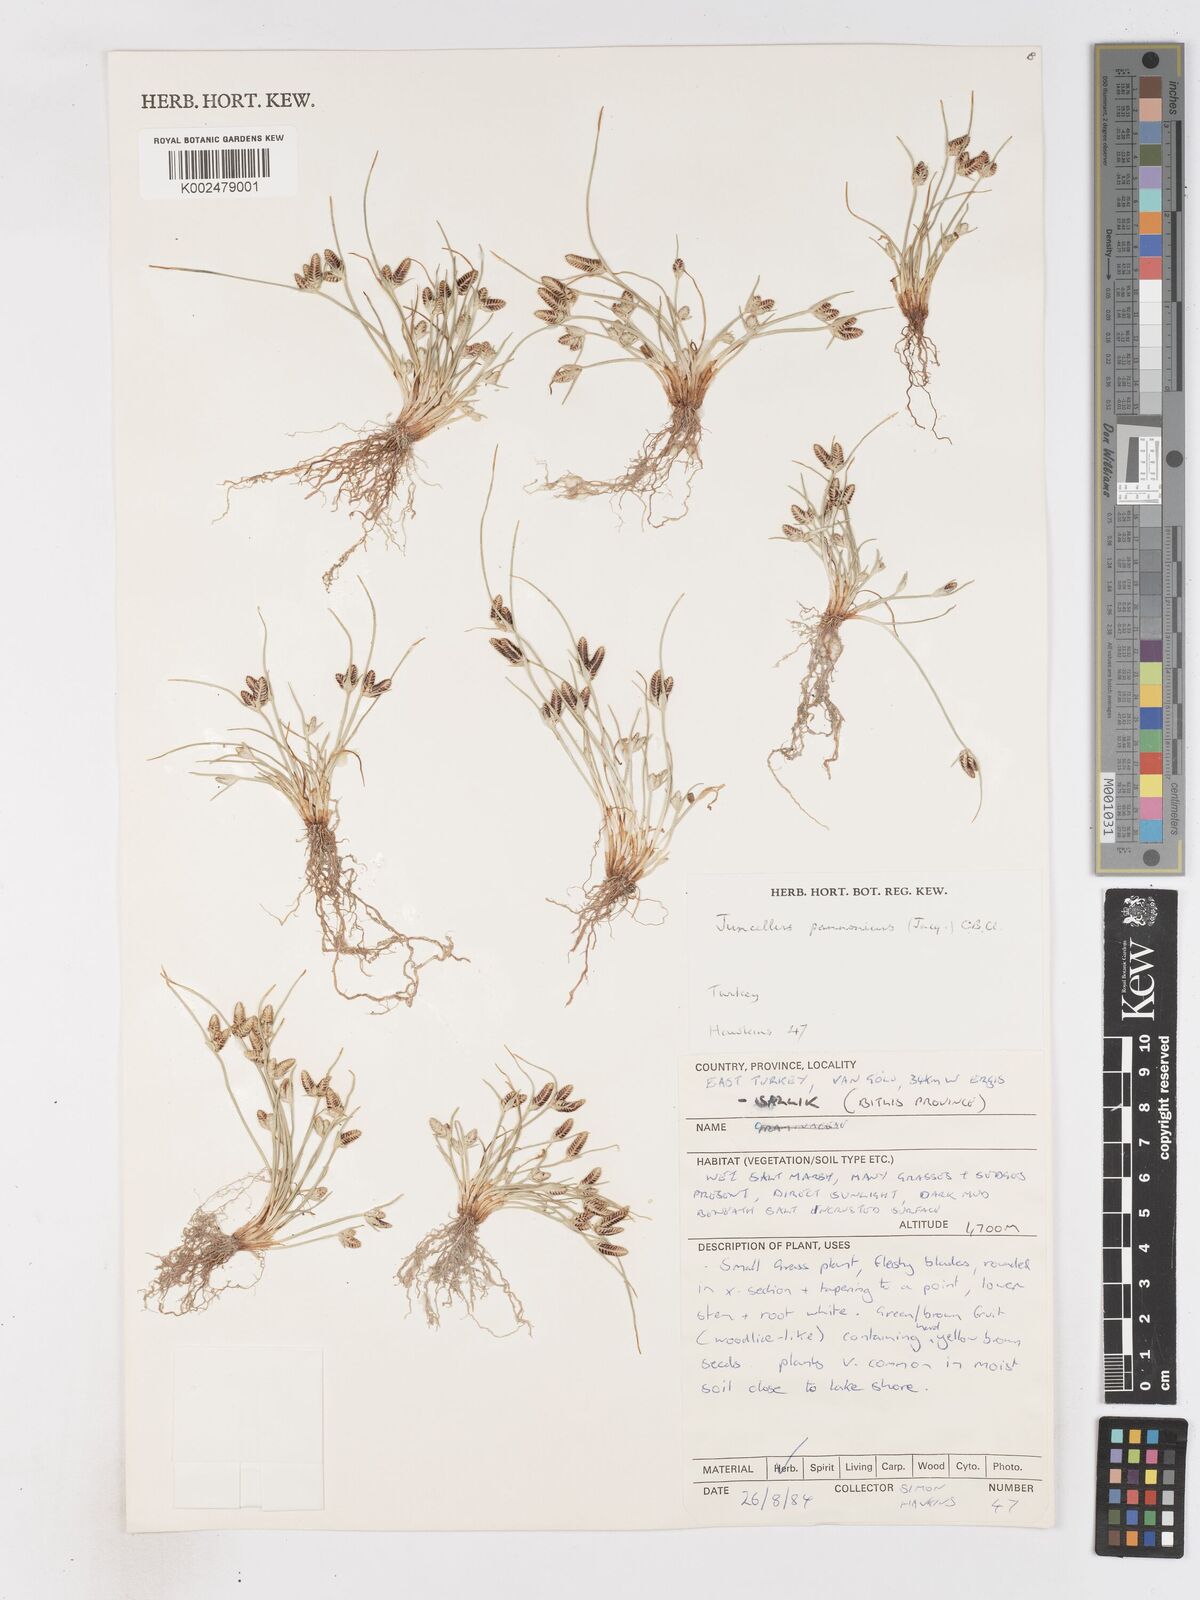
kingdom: Plantae
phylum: Tracheophyta
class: Liliopsida
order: Poales
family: Cyperaceae
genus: Cyperus
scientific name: Cyperus pannonicus
